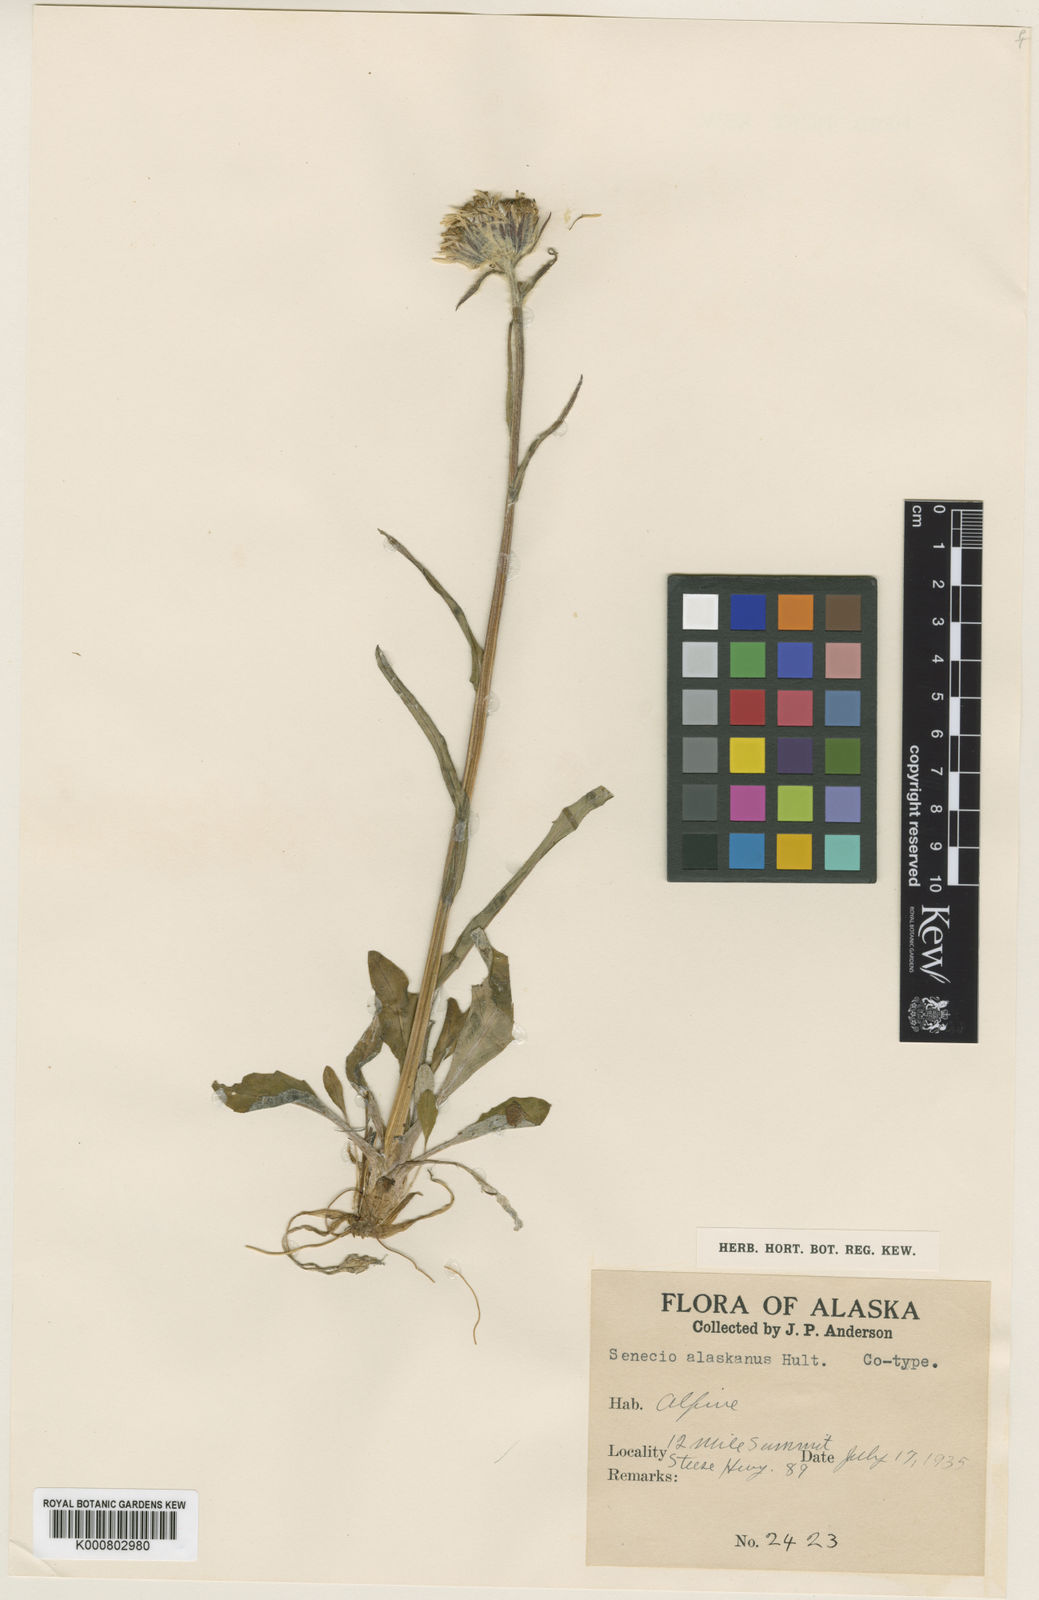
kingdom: Plantae
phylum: Tracheophyta
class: Magnoliopsida
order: Asterales
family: Asteraceae
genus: Tephroseris
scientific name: Tephroseris
